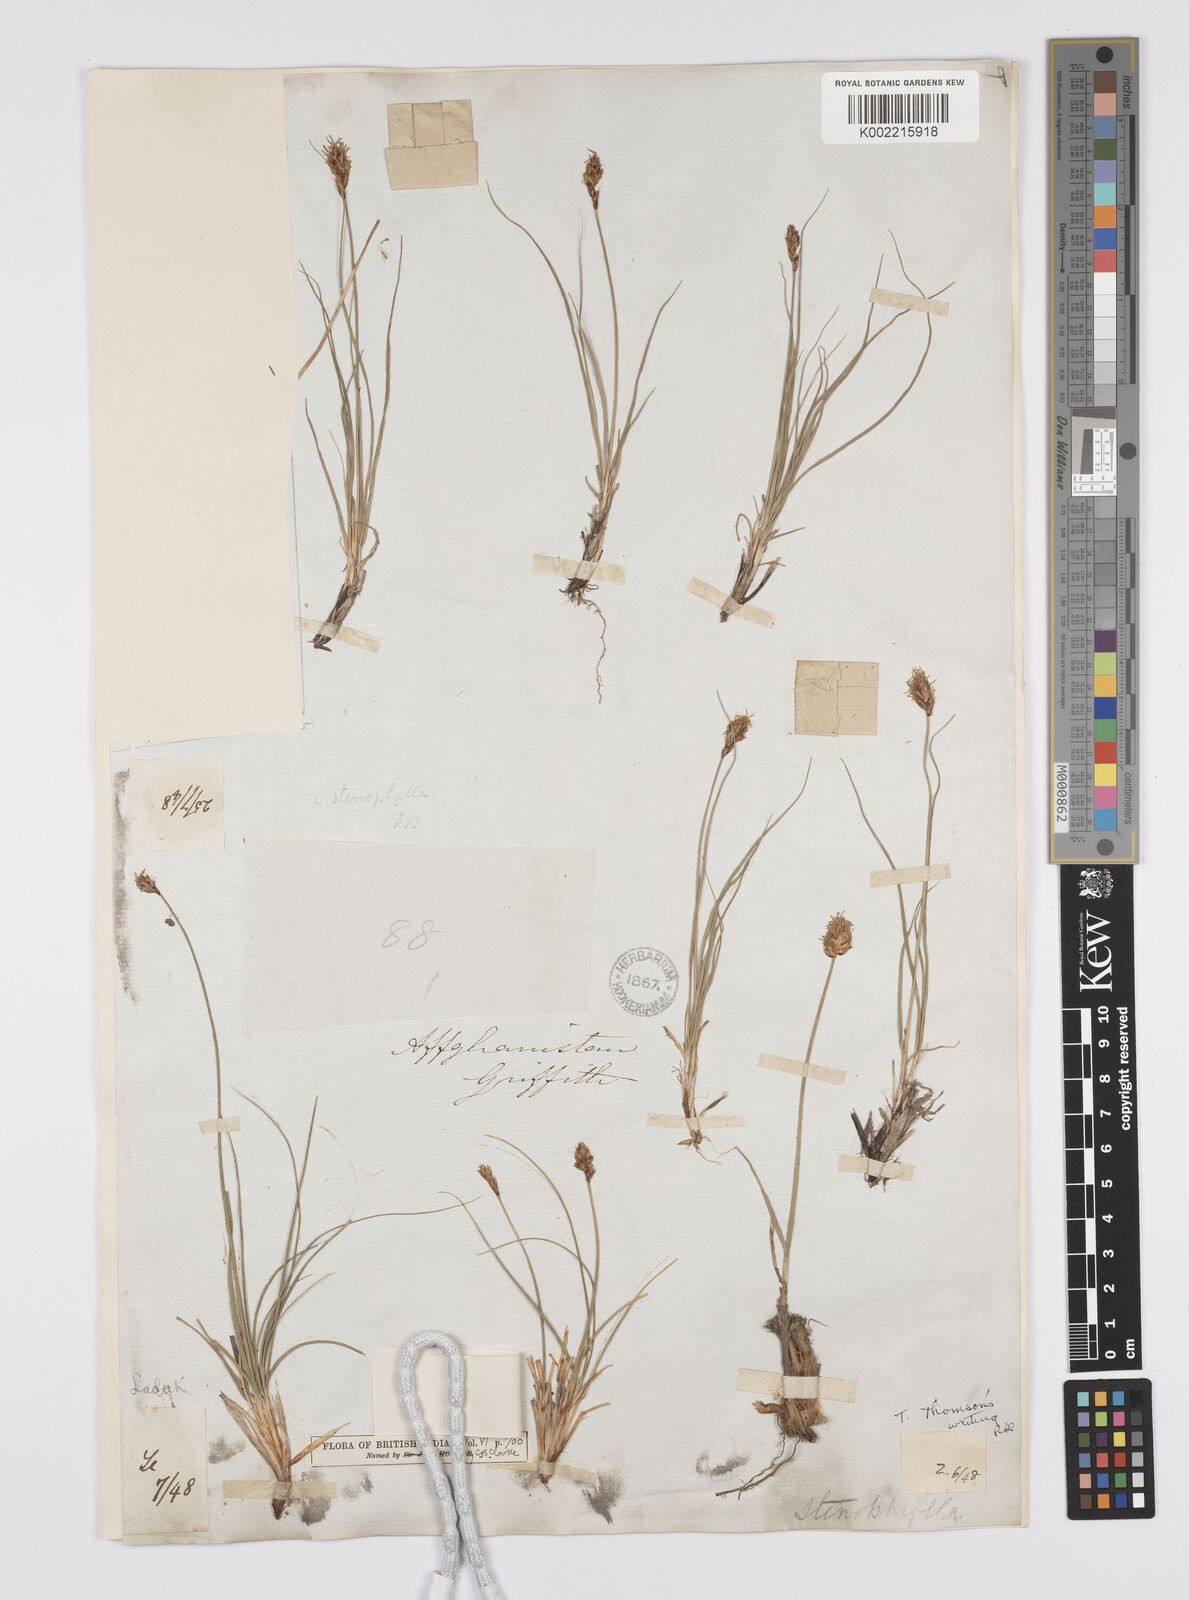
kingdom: Plantae
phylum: Tracheophyta
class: Liliopsida
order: Poales
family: Cyperaceae
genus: Carex
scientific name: Carex stenophylla
